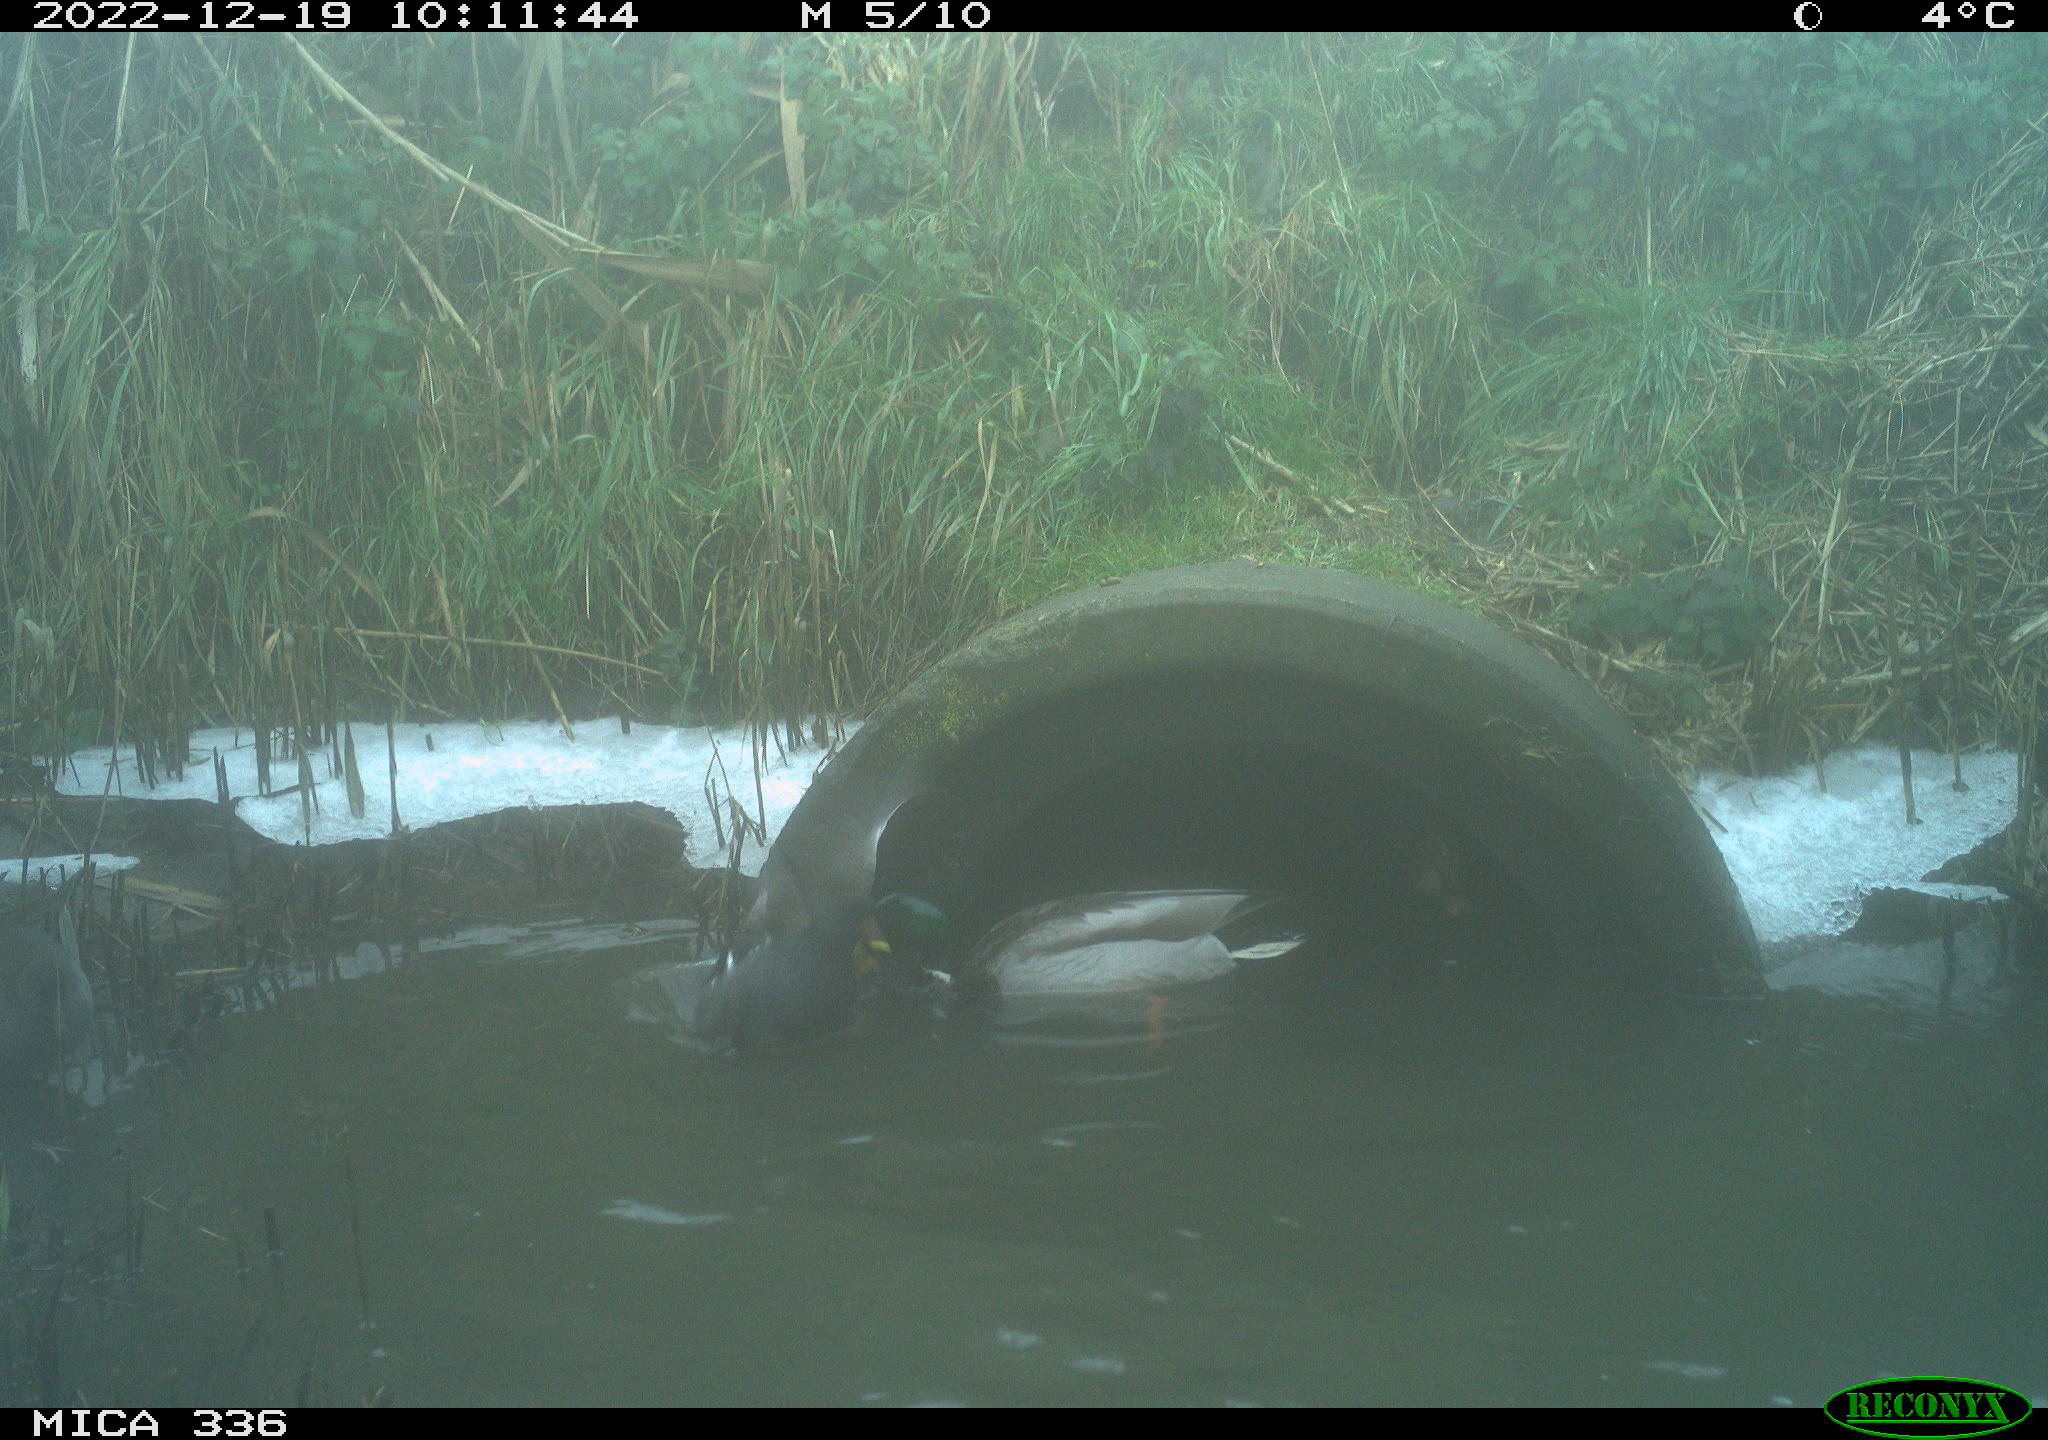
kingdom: Animalia
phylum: Chordata
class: Aves
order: Anseriformes
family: Anatidae
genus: Anas
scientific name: Anas
